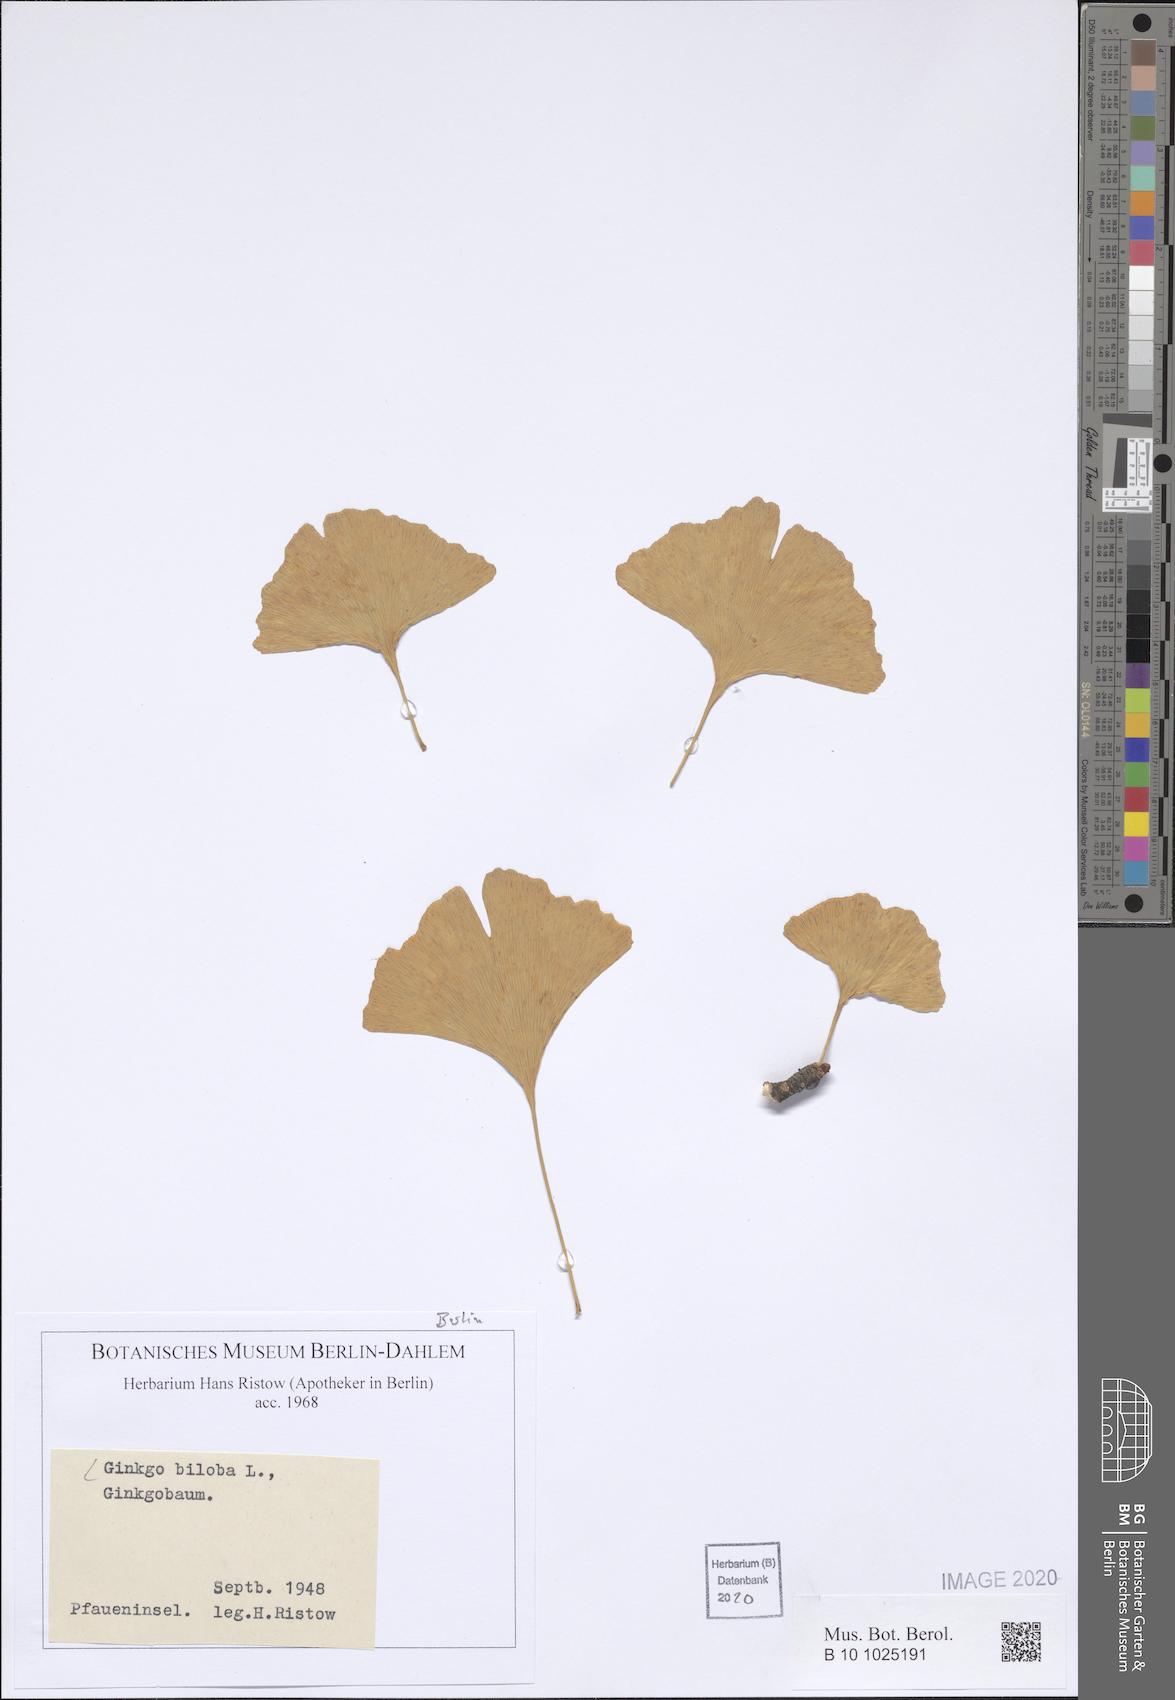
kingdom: Plantae
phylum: Tracheophyta
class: Ginkgoopsida
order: Ginkgoales
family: Ginkgoaceae
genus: Ginkgo
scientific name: Ginkgo biloba
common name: Ginkgo
